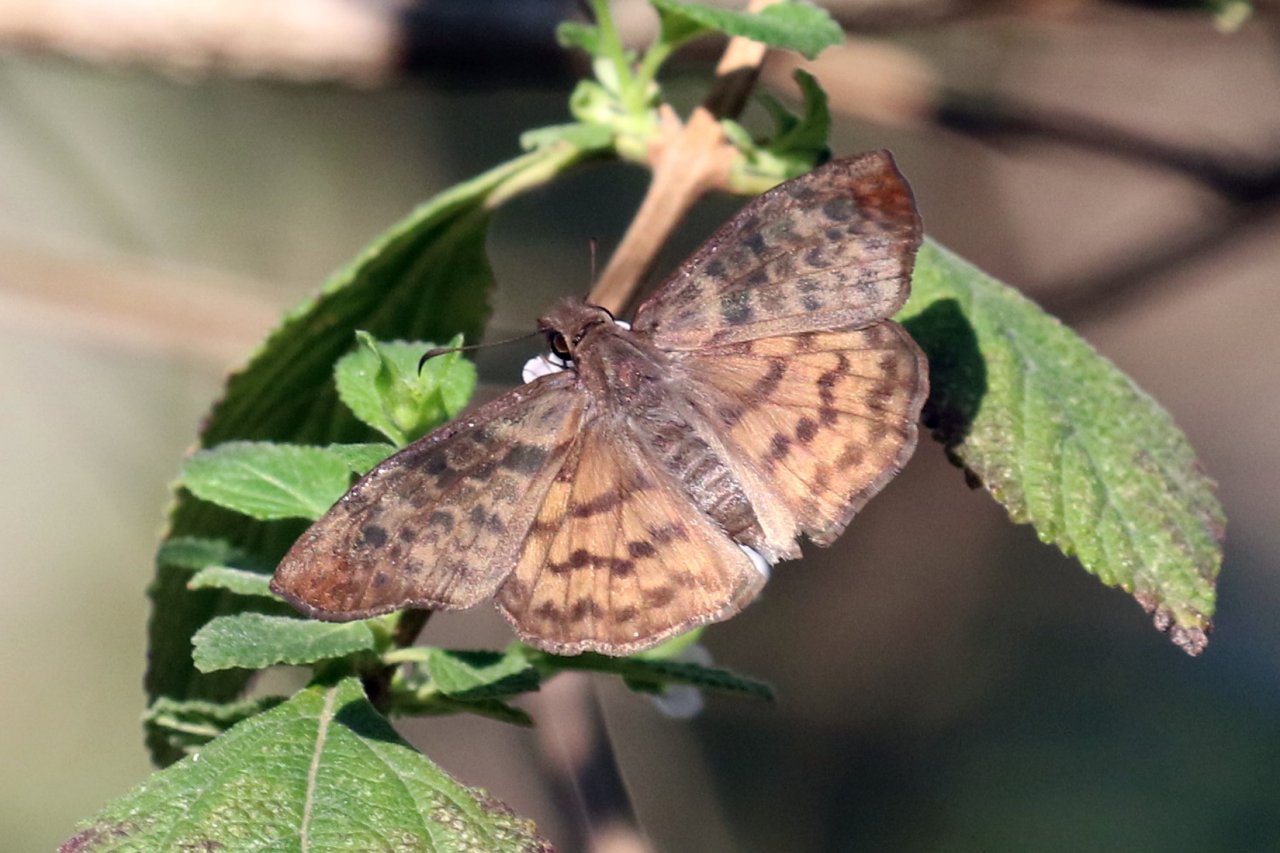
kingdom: Animalia
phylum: Arthropoda
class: Insecta
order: Lepidoptera
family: Hesperiidae
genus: Timochares
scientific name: Timochares ruptifasciata
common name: Brown-banded Skipper
